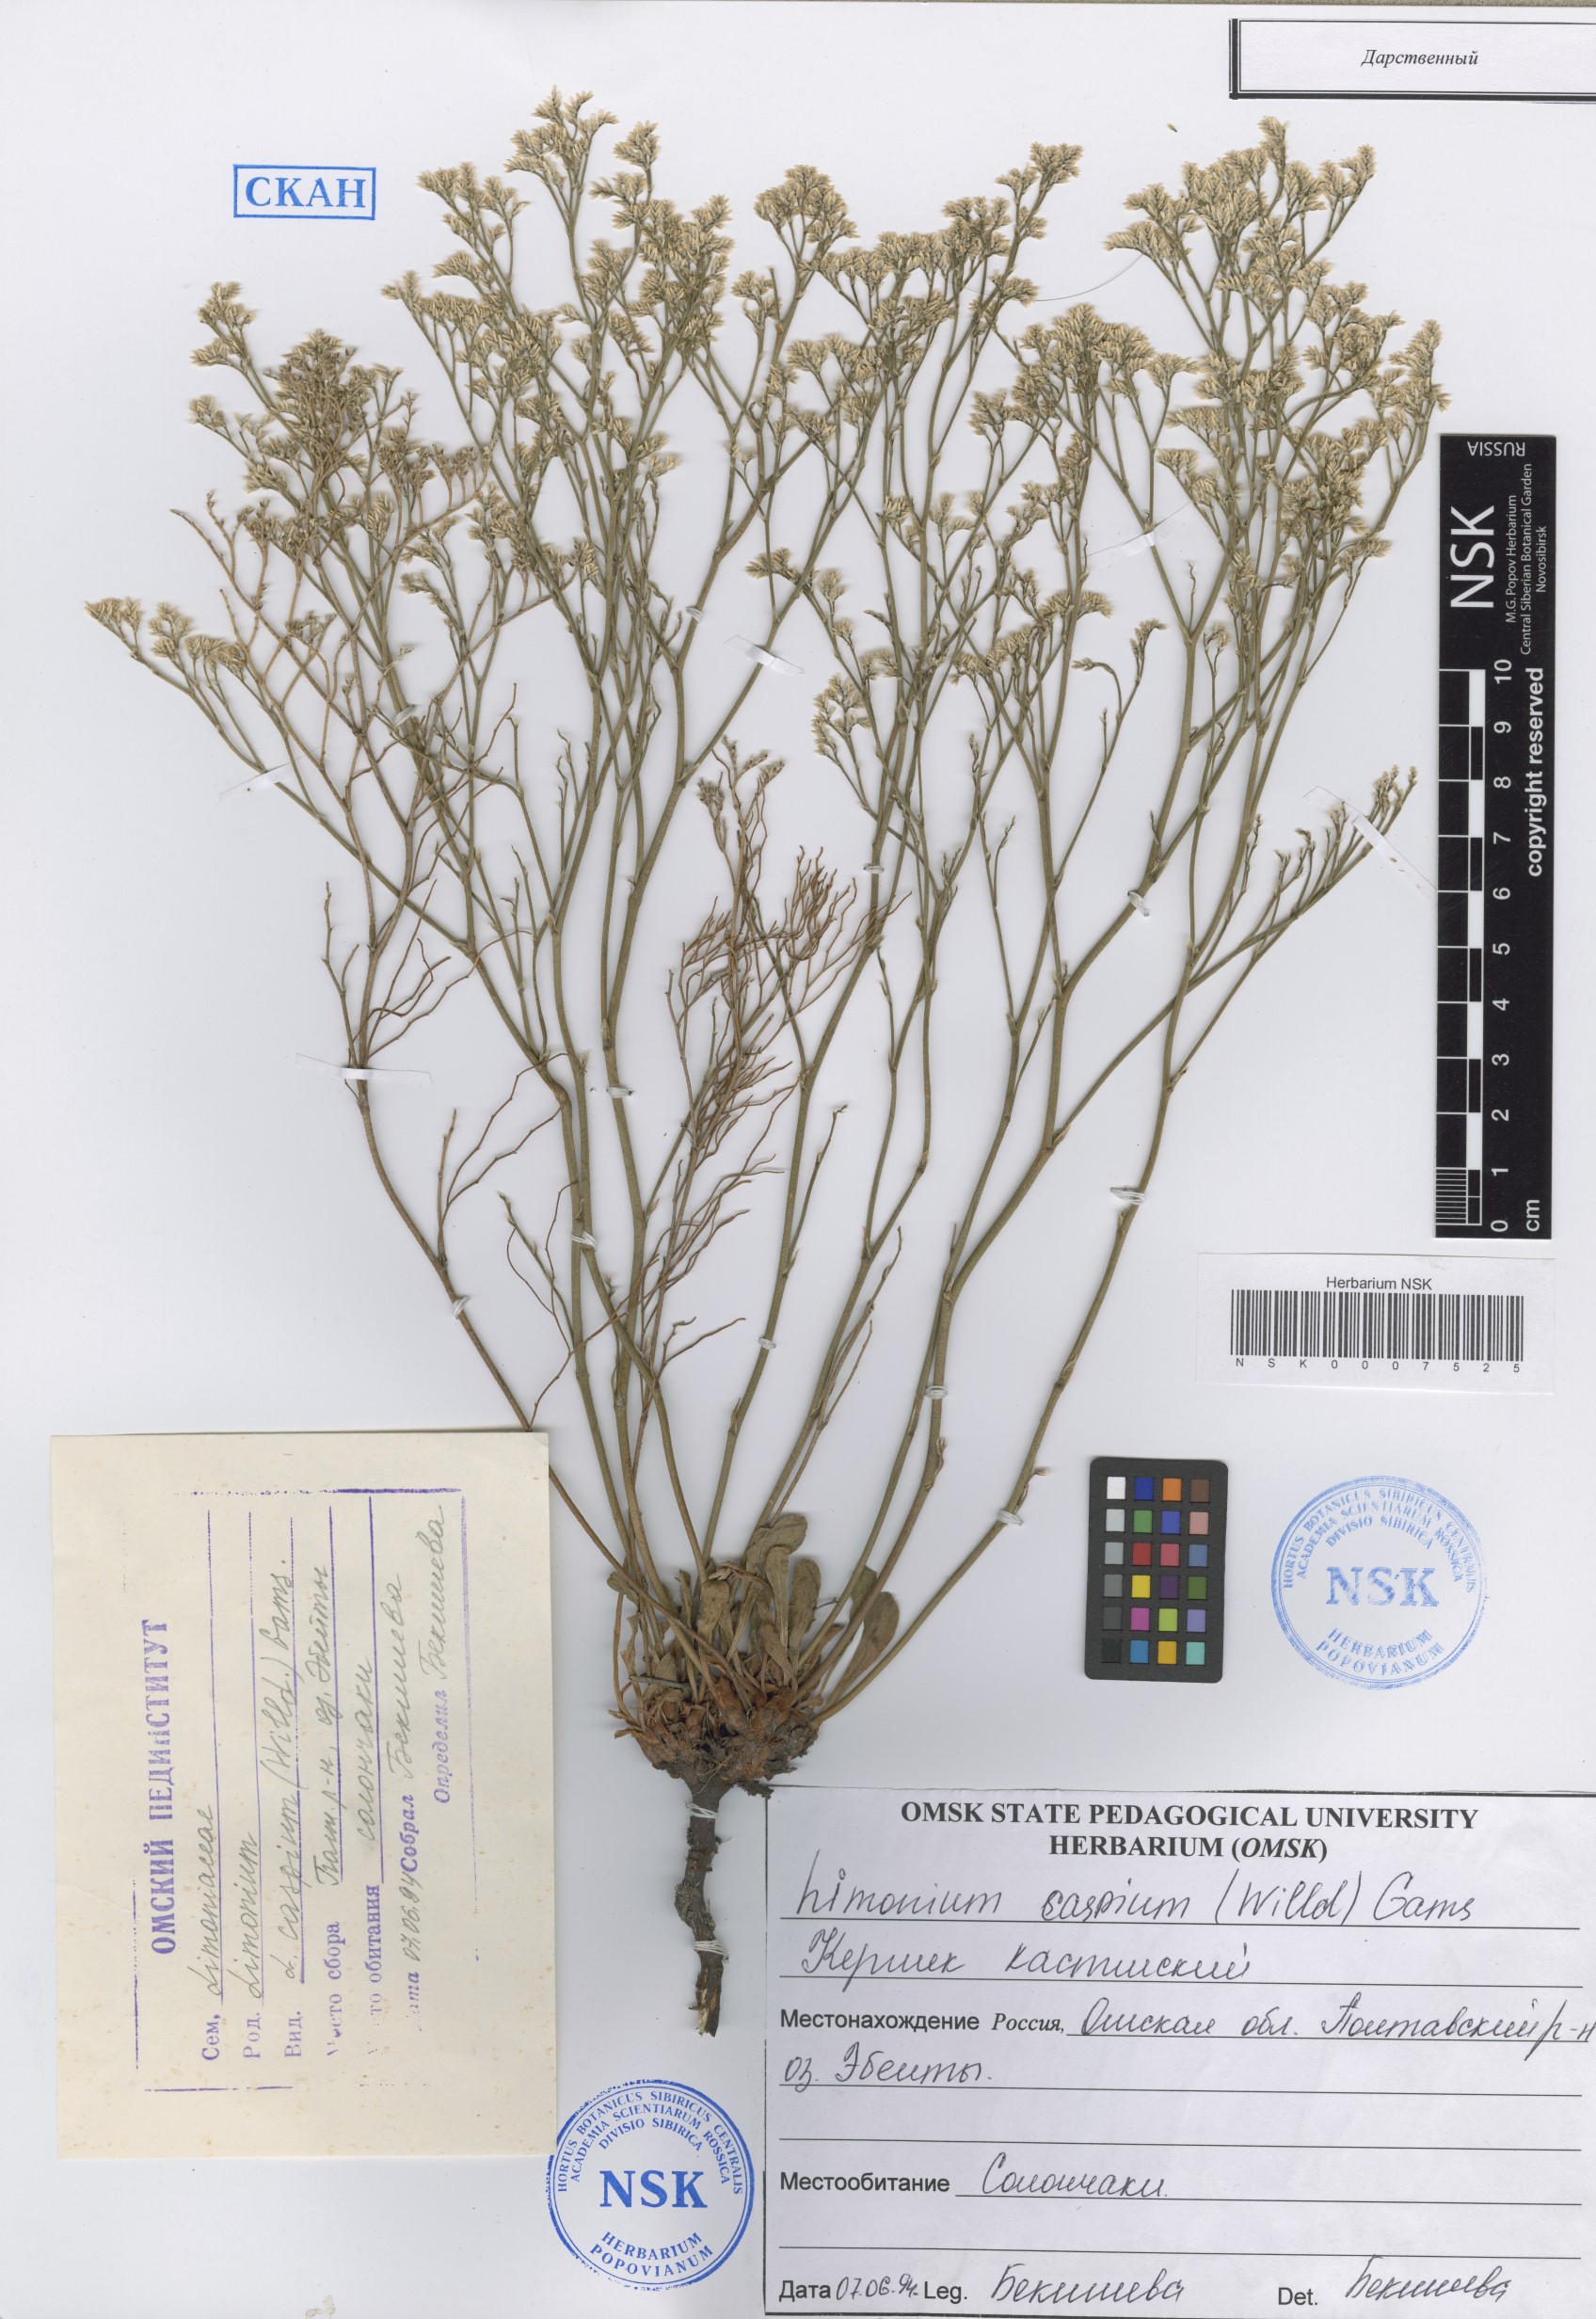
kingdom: Plantae
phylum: Tracheophyta
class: Magnoliopsida
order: Caryophyllales
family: Plumbaginaceae
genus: Limonium
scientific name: Limonium bellidifolium
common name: Matted sea-lavender
